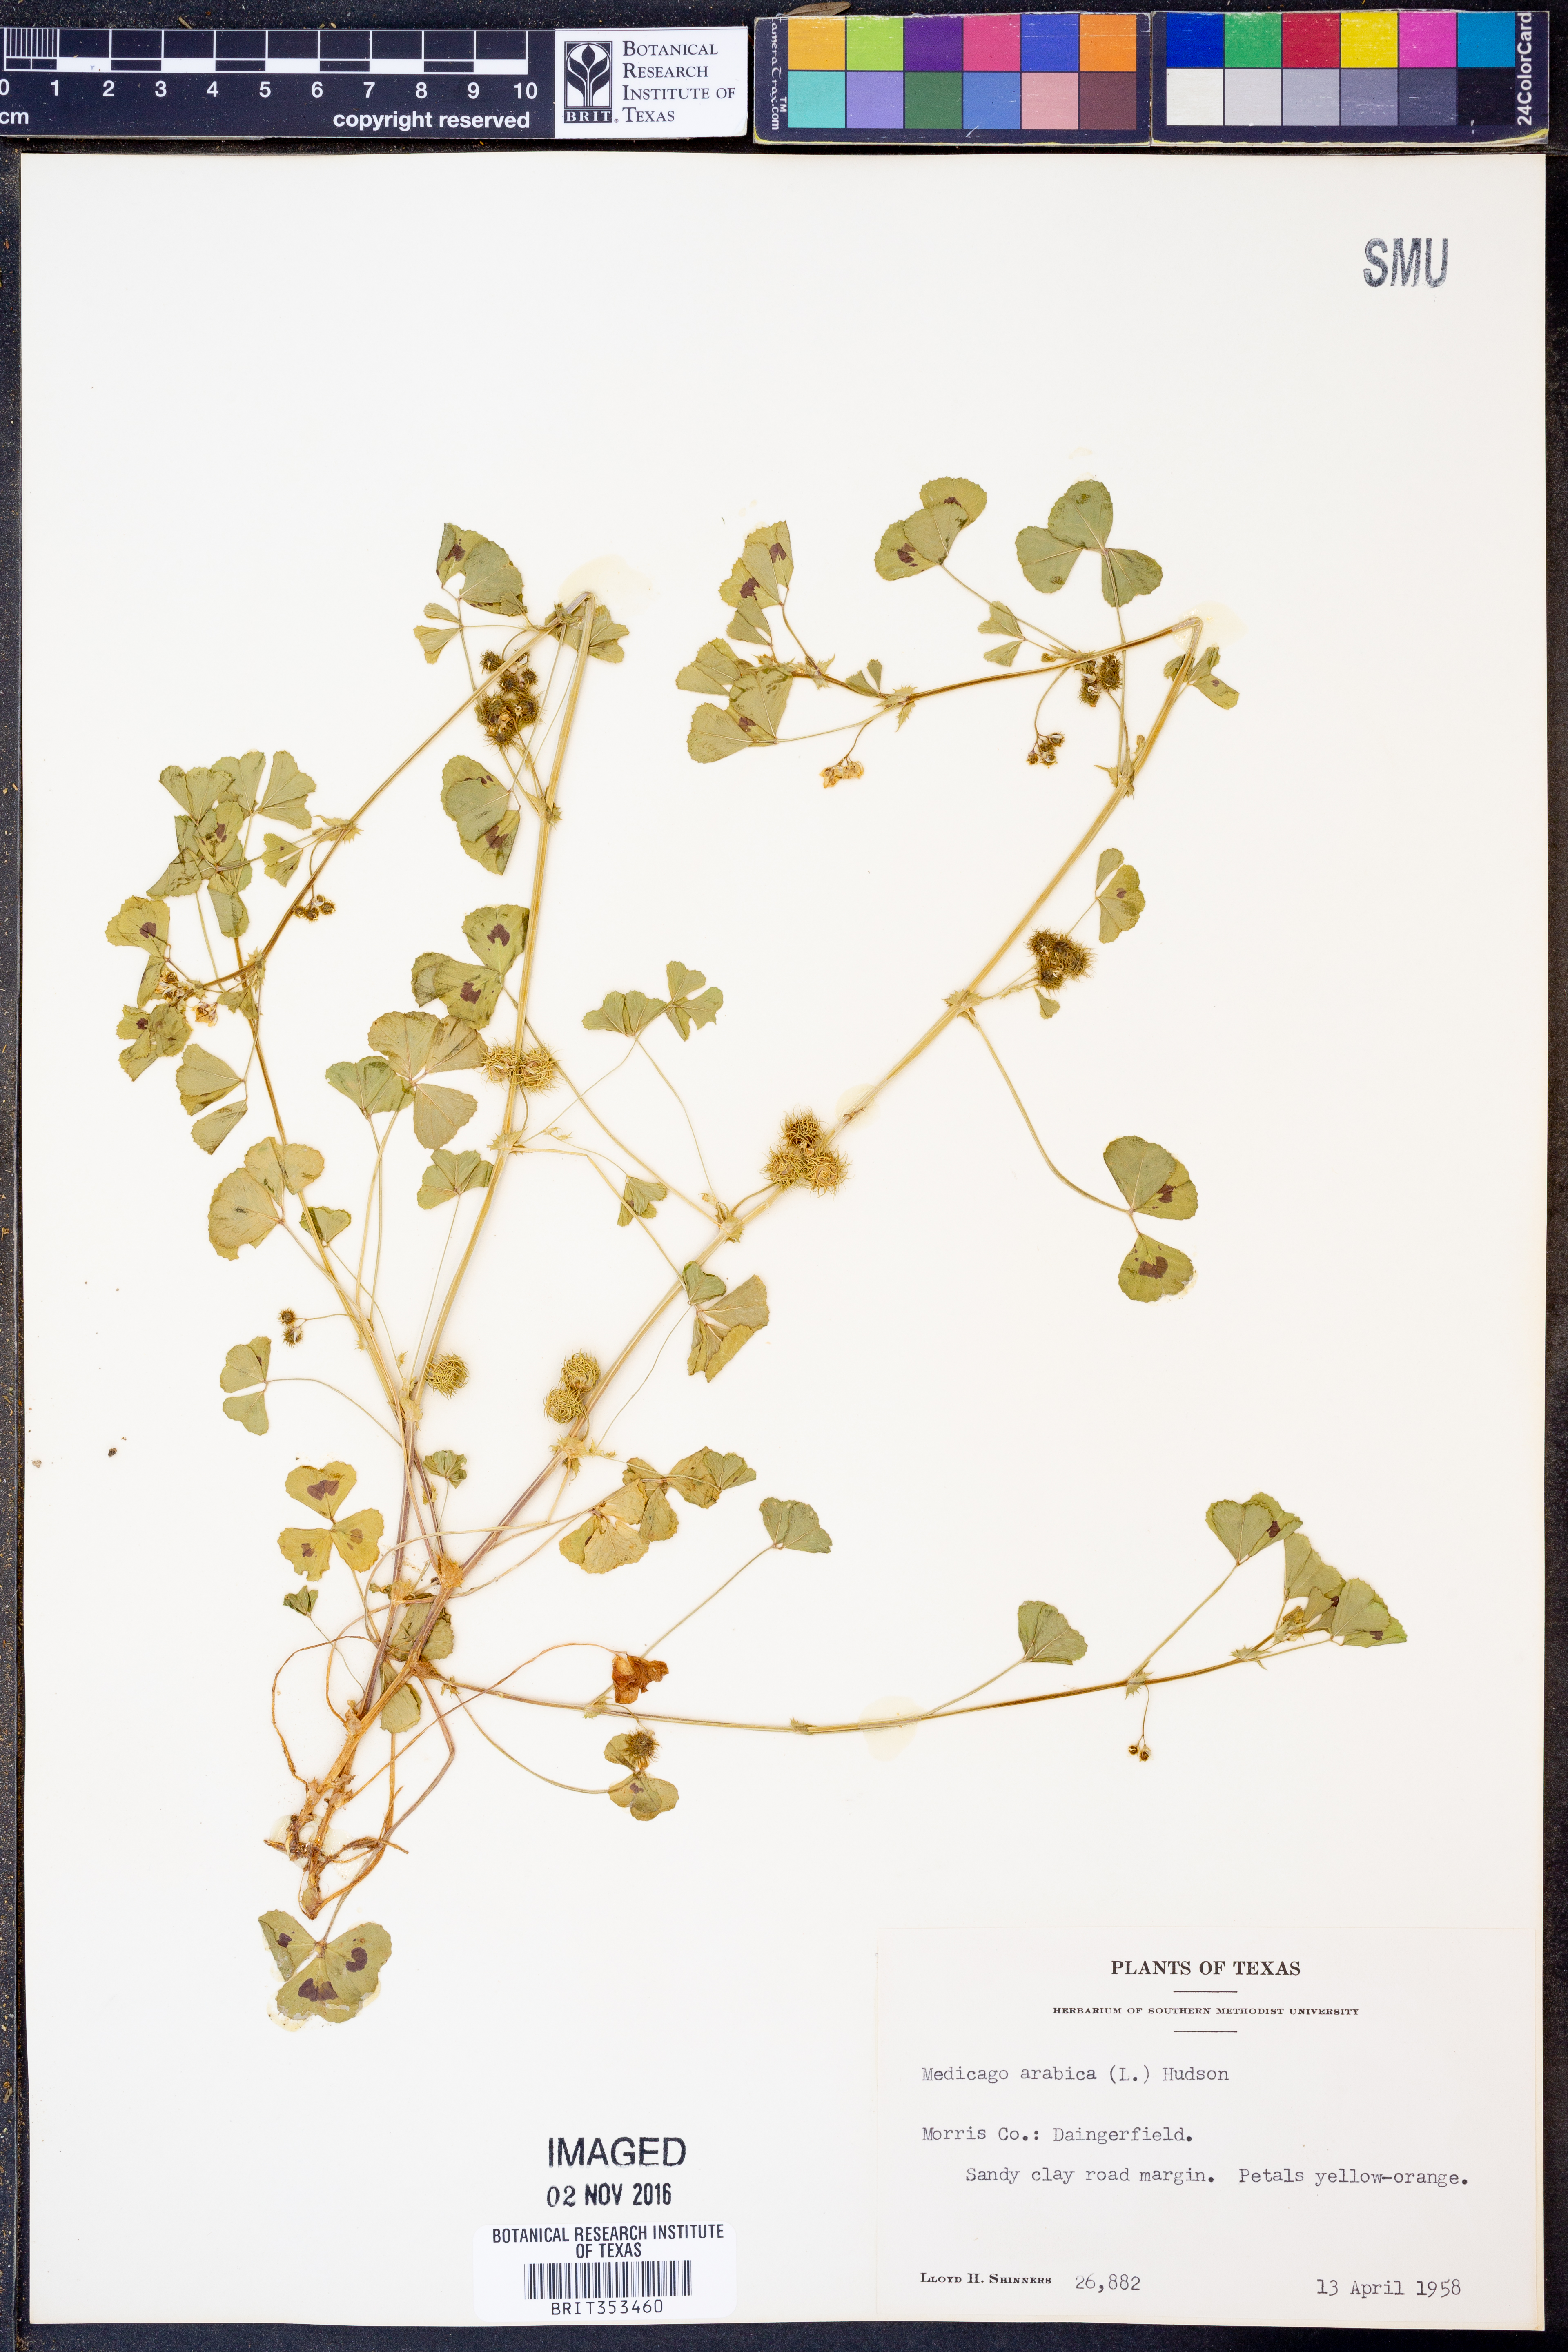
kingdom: Plantae
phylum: Tracheophyta
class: Magnoliopsida
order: Fabales
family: Fabaceae
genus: Medicago
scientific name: Medicago arabica
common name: Spotted medick
